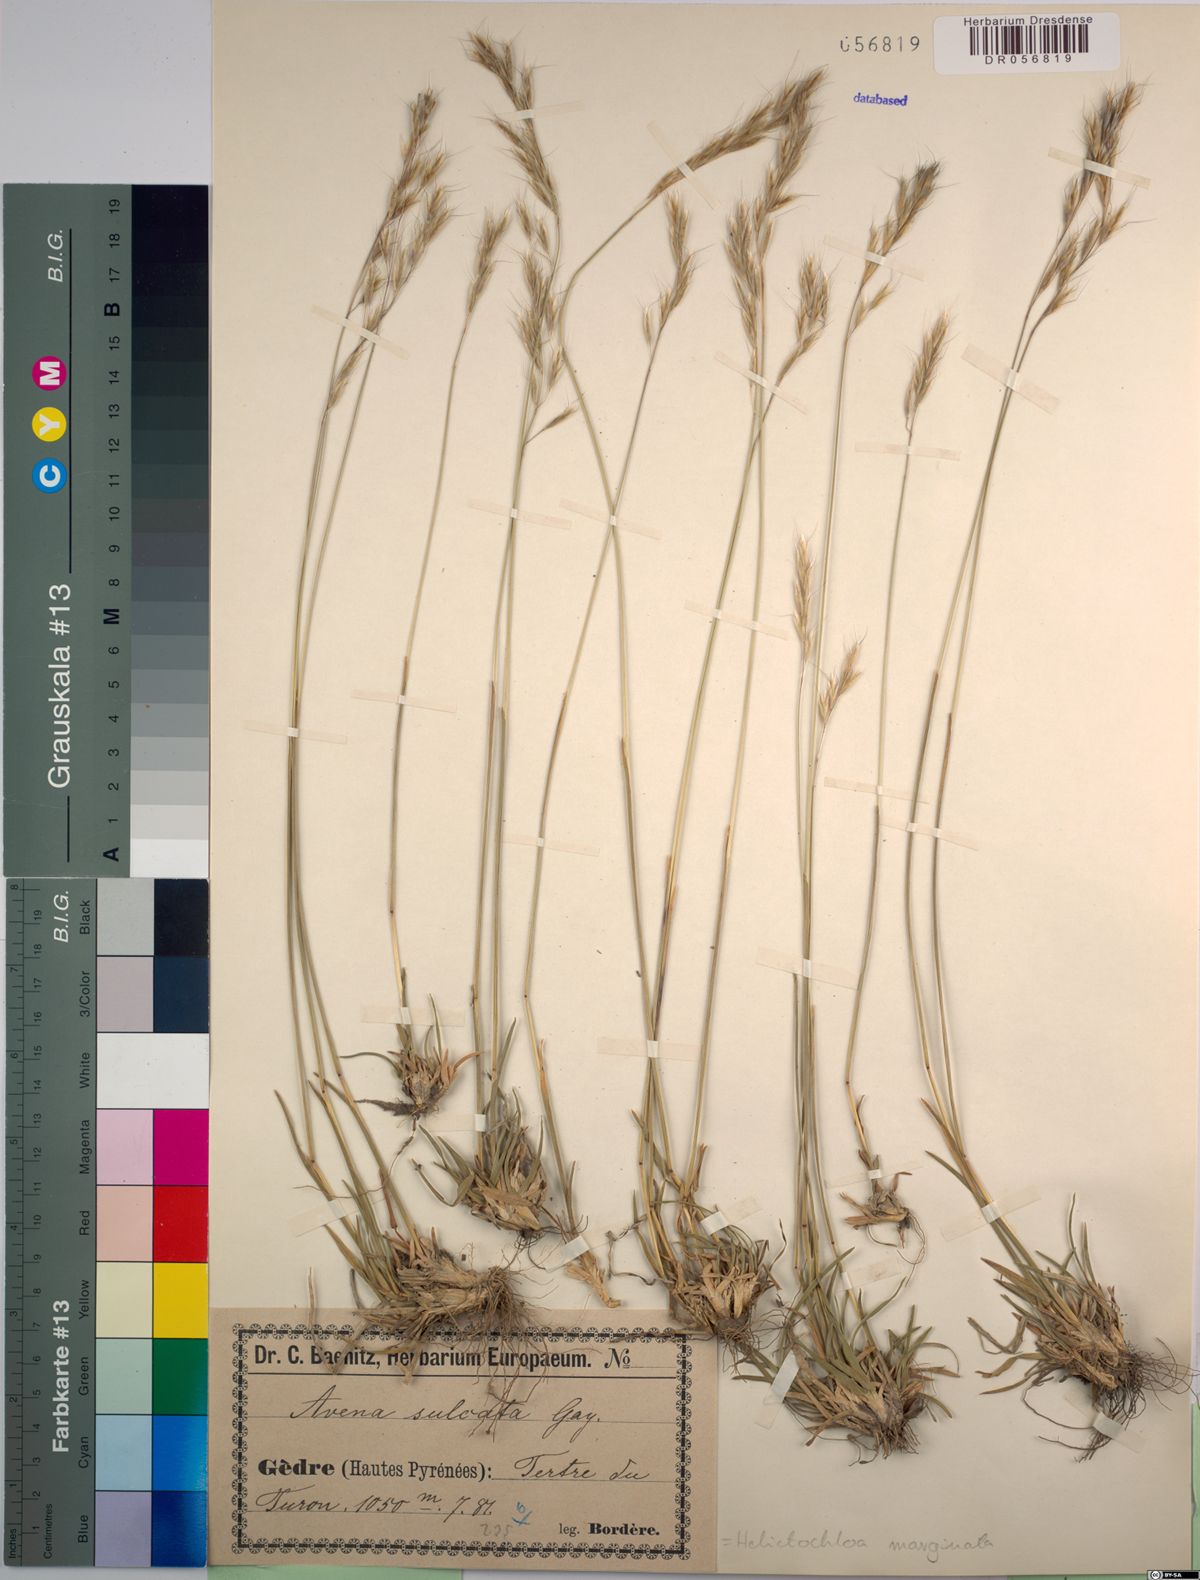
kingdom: Plantae
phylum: Tracheophyta
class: Liliopsida
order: Poales
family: Poaceae
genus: Helictochloa
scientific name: Helictochloa marginata
